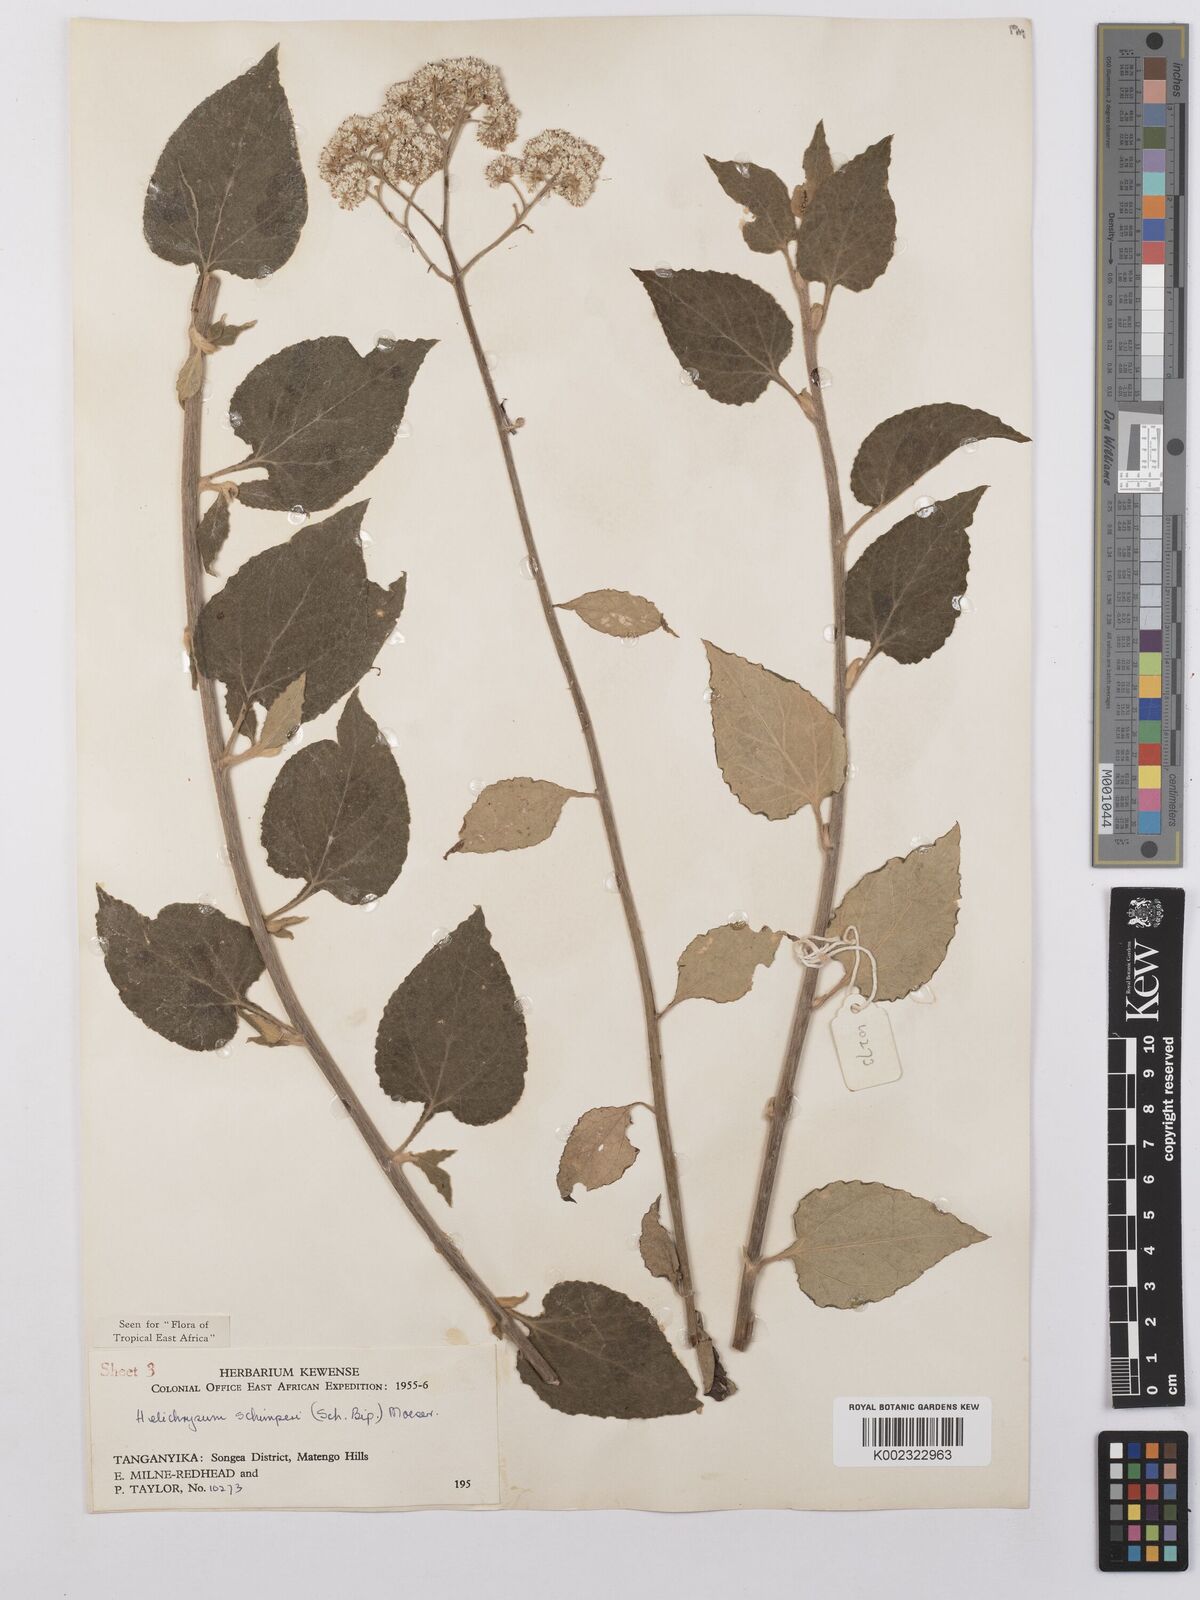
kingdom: Plantae
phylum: Tracheophyta
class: Magnoliopsida
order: Asterales
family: Asteraceae
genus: Helichrysum
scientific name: Helichrysum schimperi
